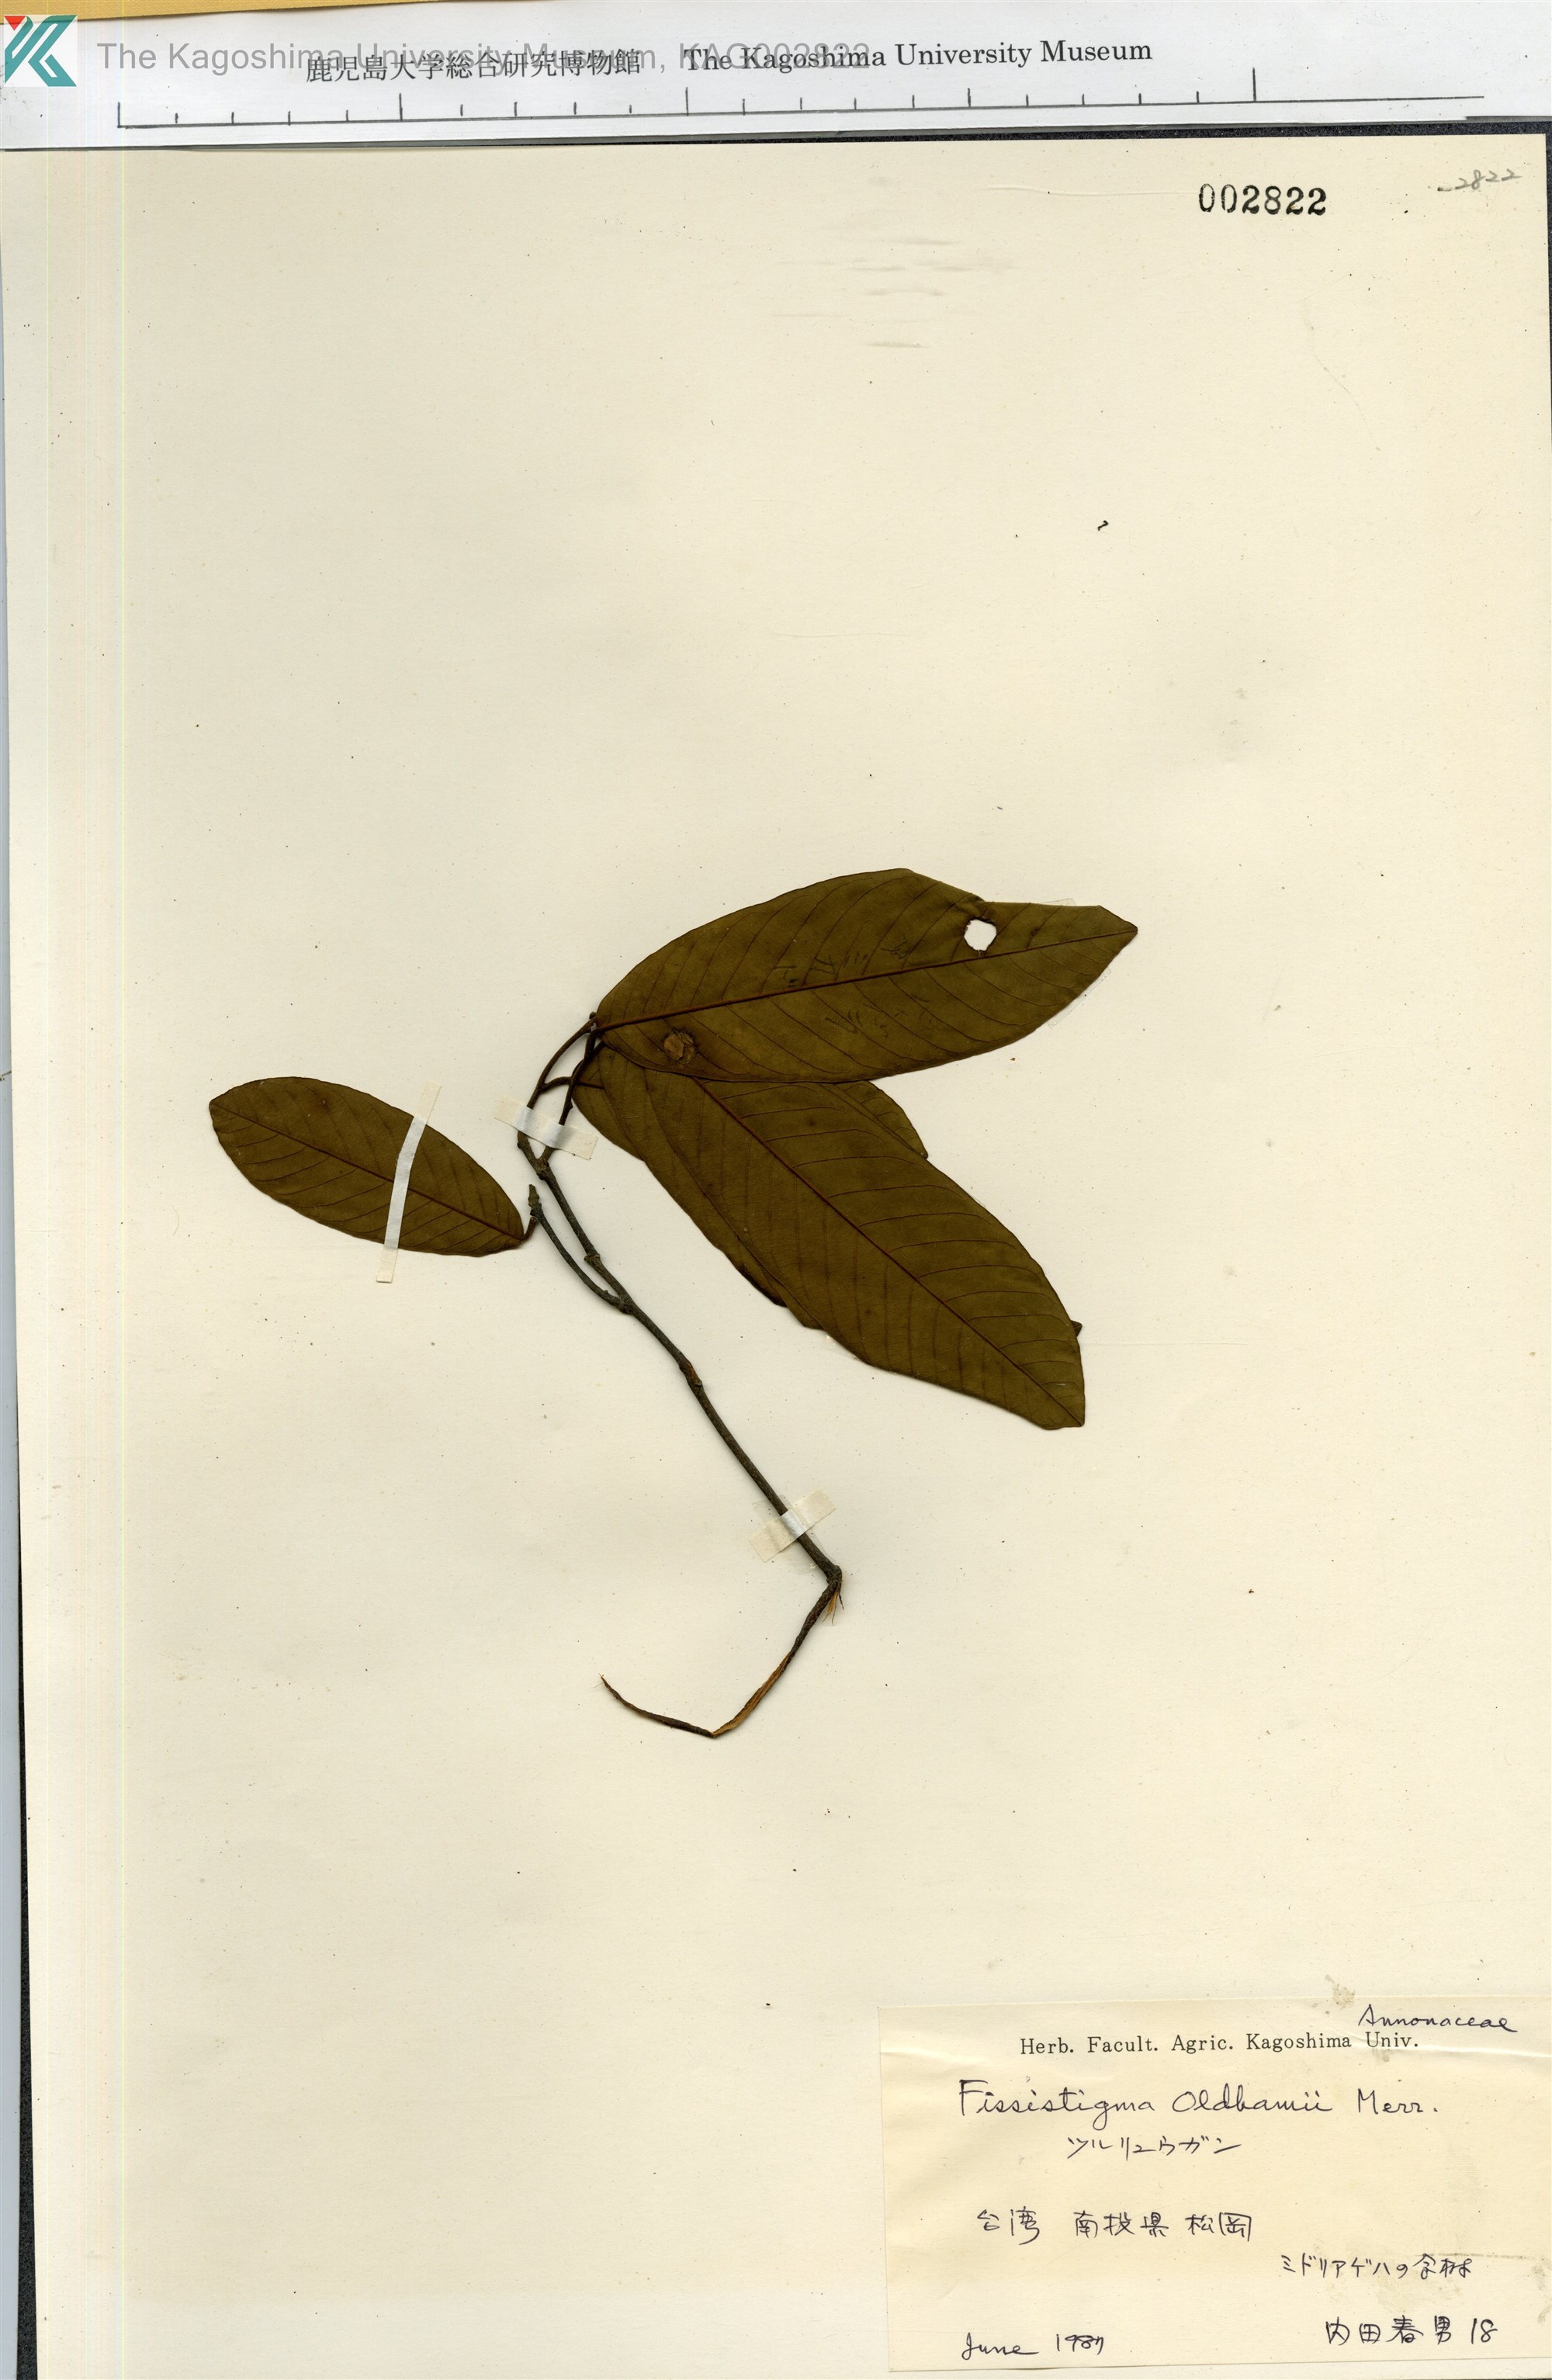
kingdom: Plantae
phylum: Tracheophyta
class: Magnoliopsida
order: Magnoliales
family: Annonaceae
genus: Fissistigma
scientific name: Fissistigma oldhamii
